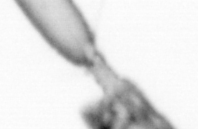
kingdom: Animalia
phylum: Arthropoda
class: Copepoda
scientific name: Copepoda
